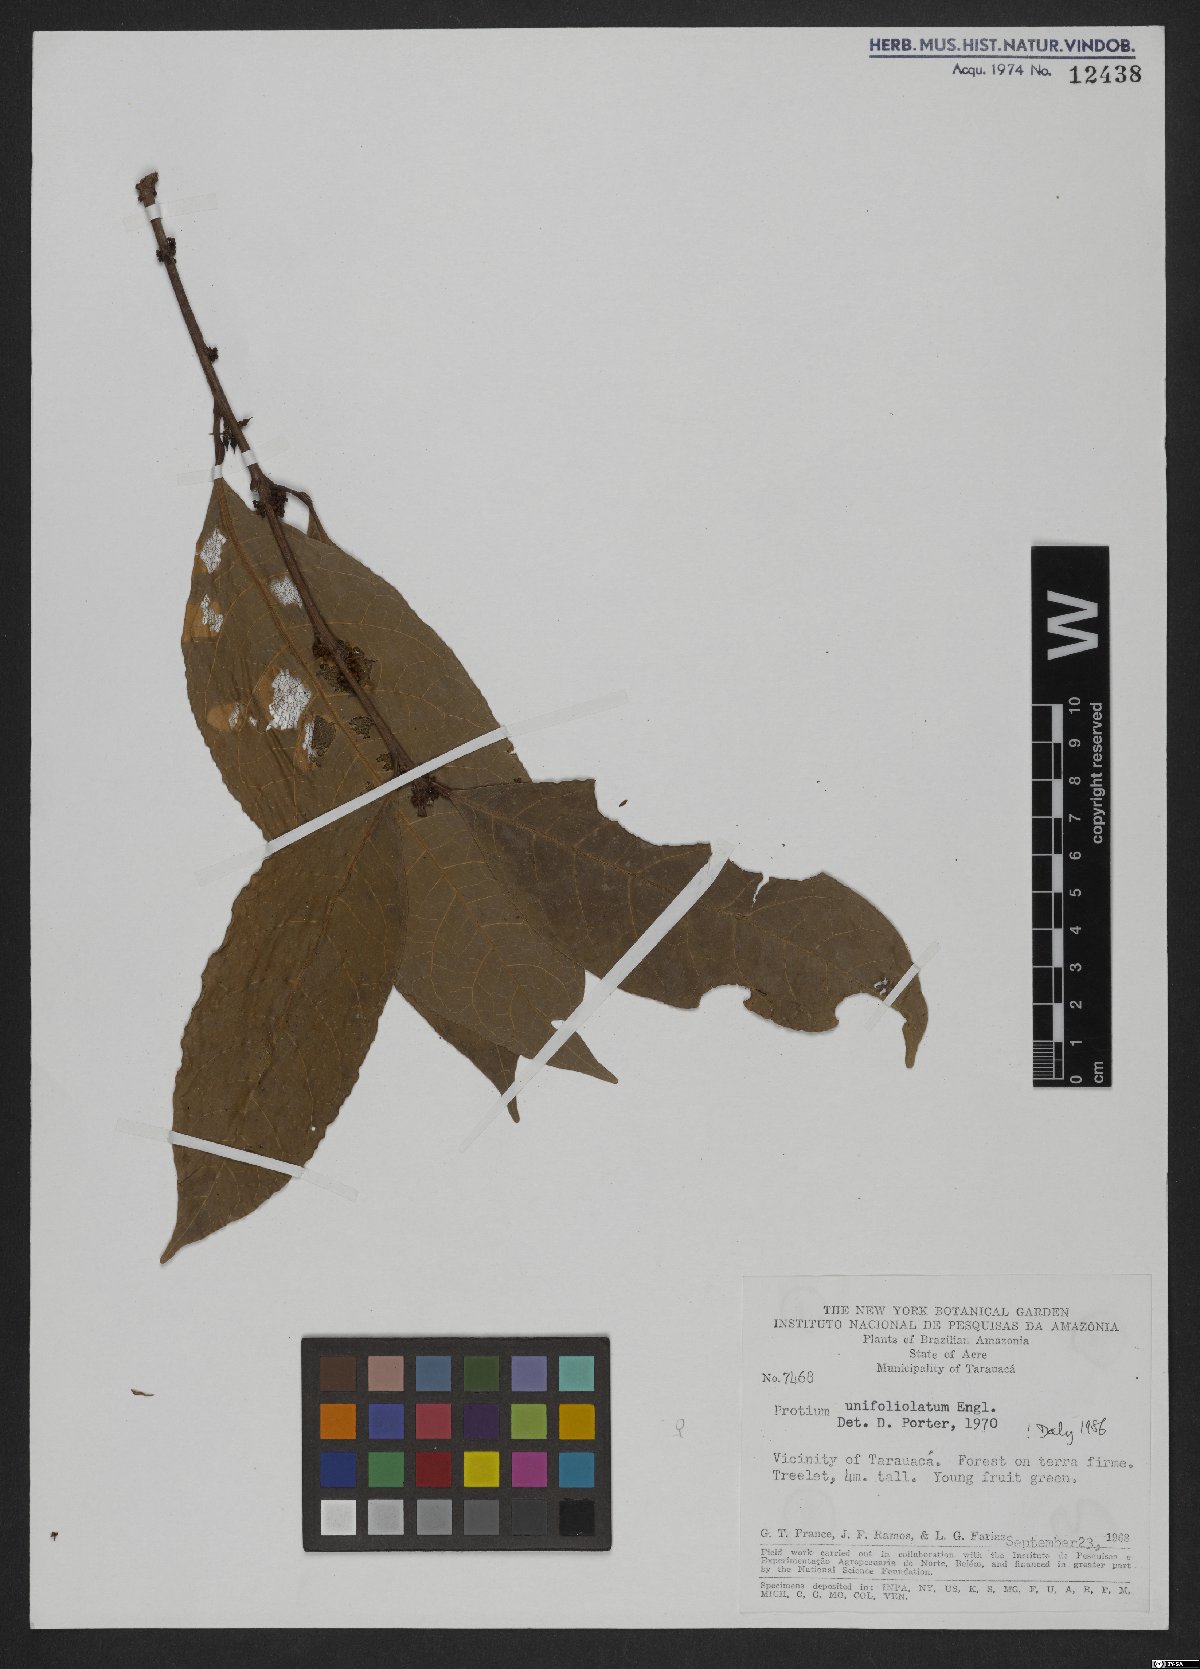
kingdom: Plantae
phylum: Tracheophyta
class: Magnoliopsida
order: Sapindales
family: Burseraceae
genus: Protium
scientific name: Protium unifoliolatum
